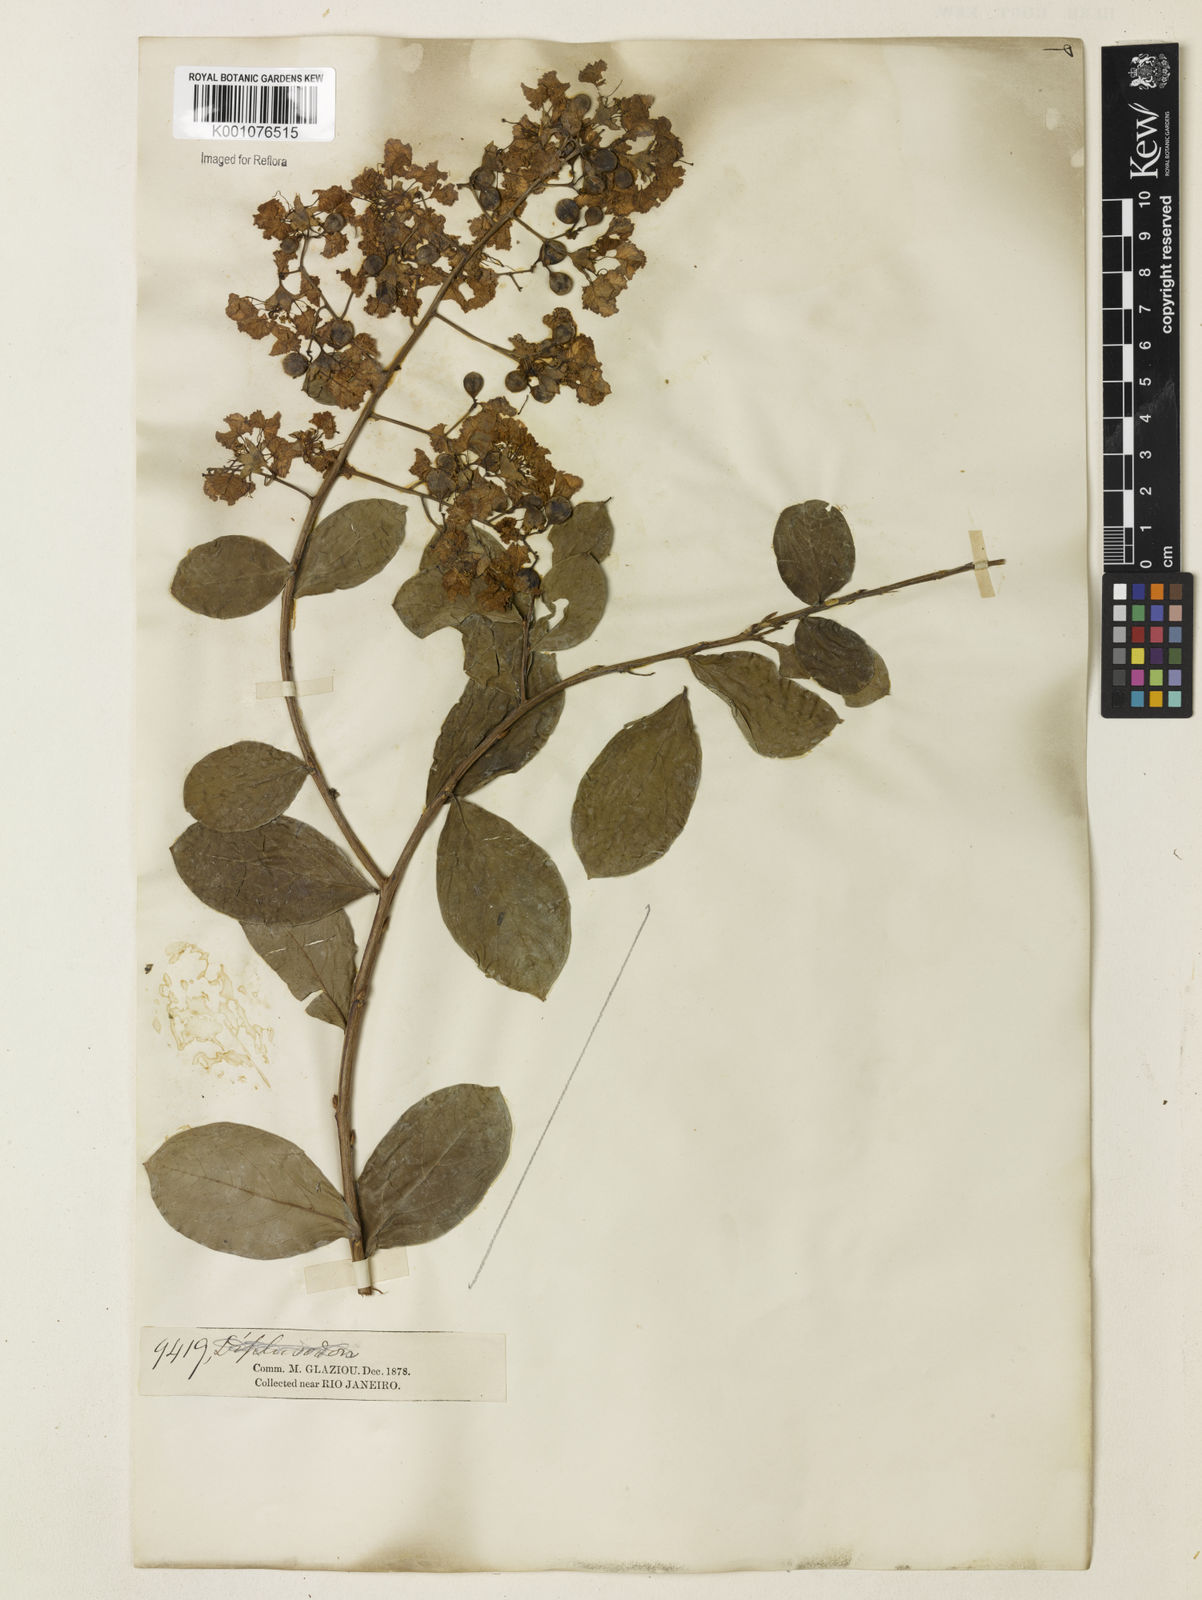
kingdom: Plantae
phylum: Tracheophyta
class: Magnoliopsida
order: Myrtales
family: Lythraceae
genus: Lagerstroemia
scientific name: Lagerstroemia indica
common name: Crape-myrtle
